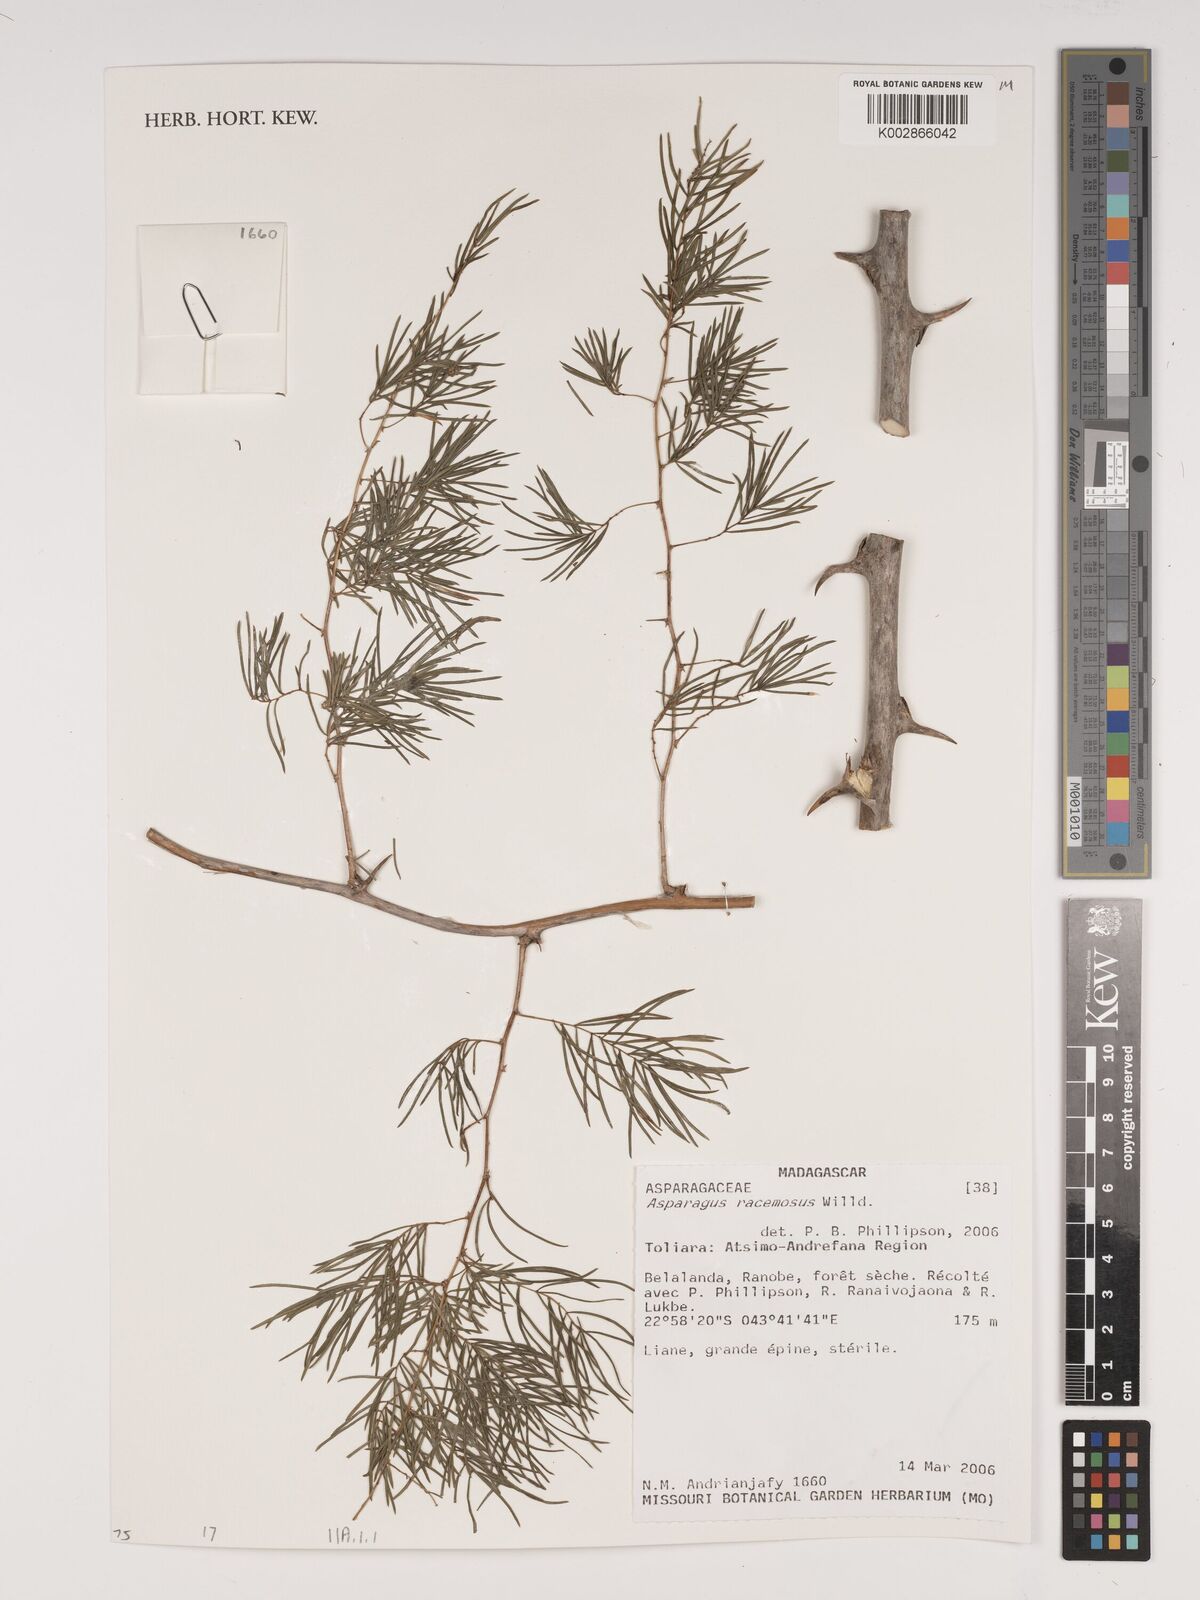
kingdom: Plantae
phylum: Tracheophyta
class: Liliopsida
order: Asparagales
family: Asparagaceae
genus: Asparagus
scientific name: Asparagus racemosus
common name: Asparagus-fern
